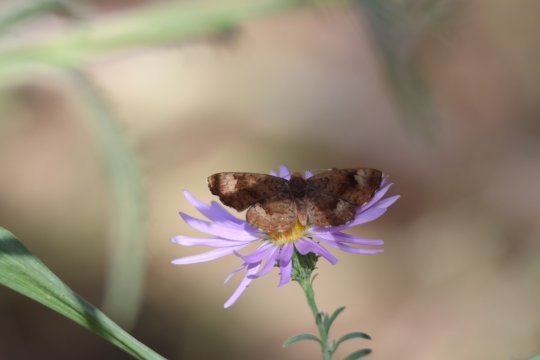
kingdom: Animalia
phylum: Arthropoda
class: Insecta
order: Lepidoptera
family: Lycaenidae
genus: Emesis
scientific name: Emesis zela
